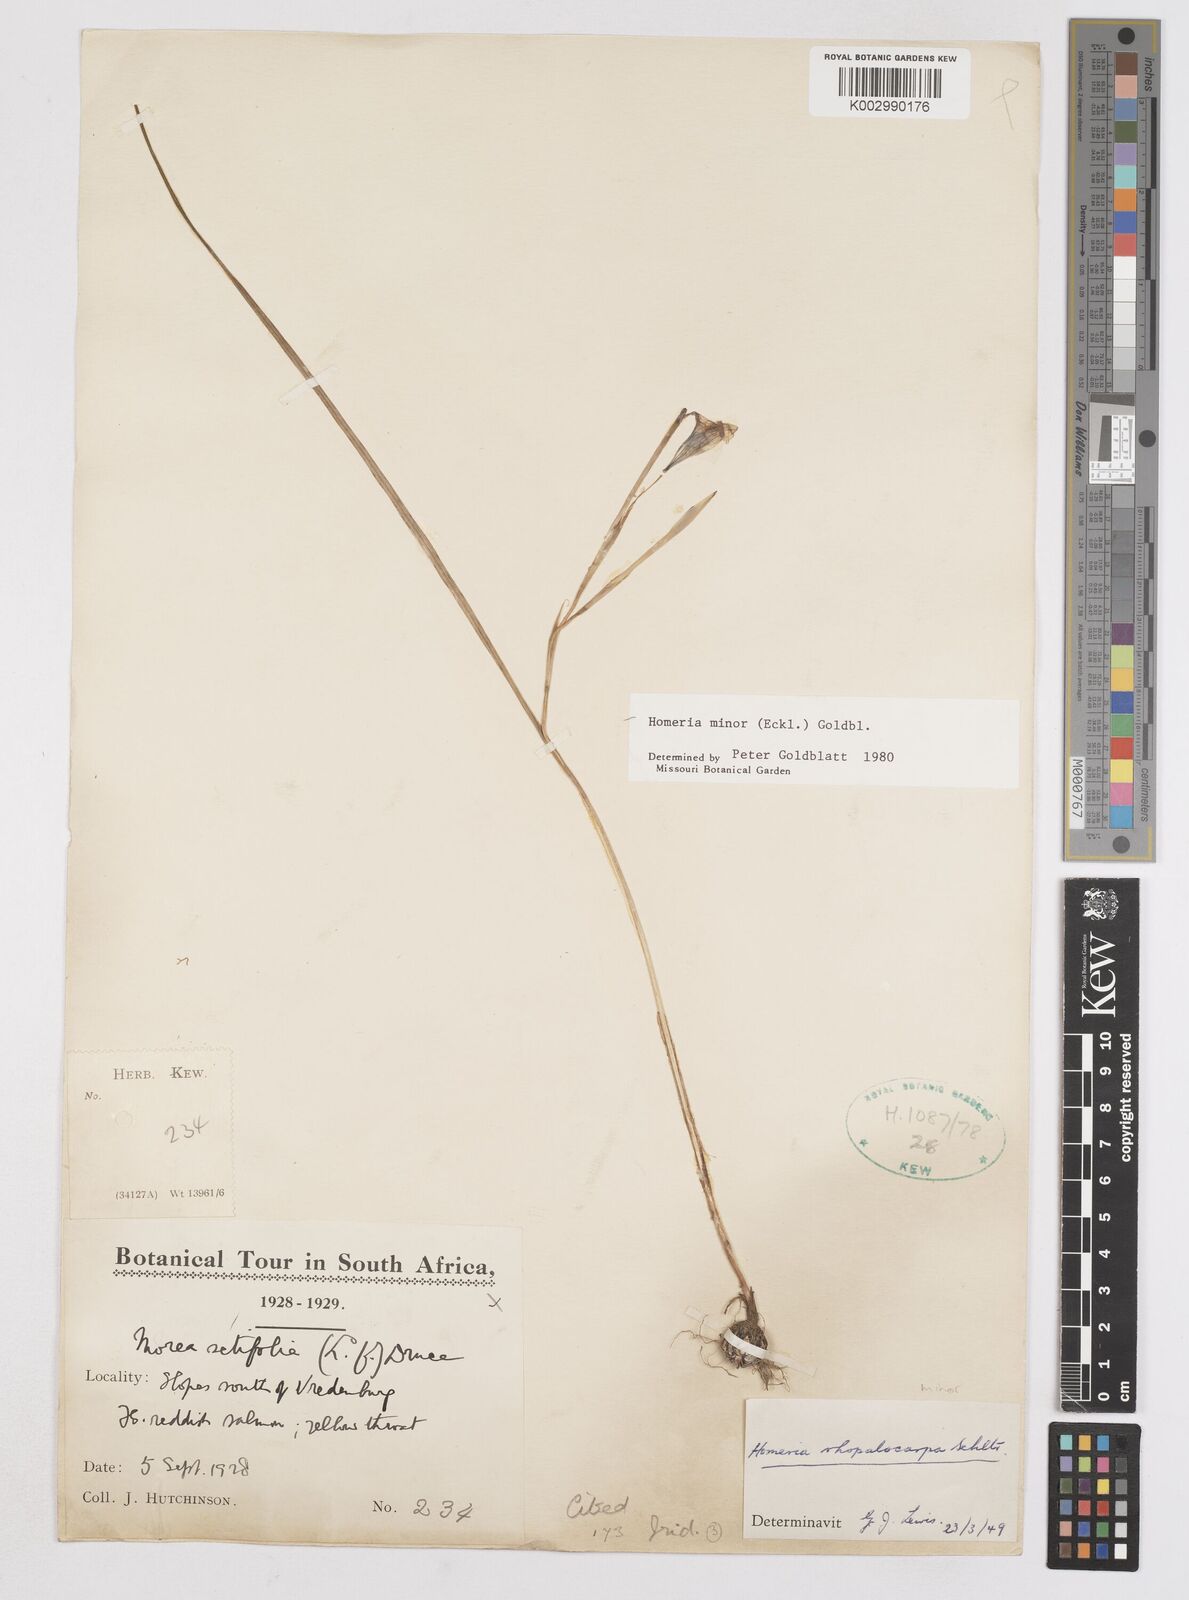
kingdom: Plantae
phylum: Tracheophyta
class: Liliopsida
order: Asparagales
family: Iridaceae
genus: Moraea
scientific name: Moraea minor
